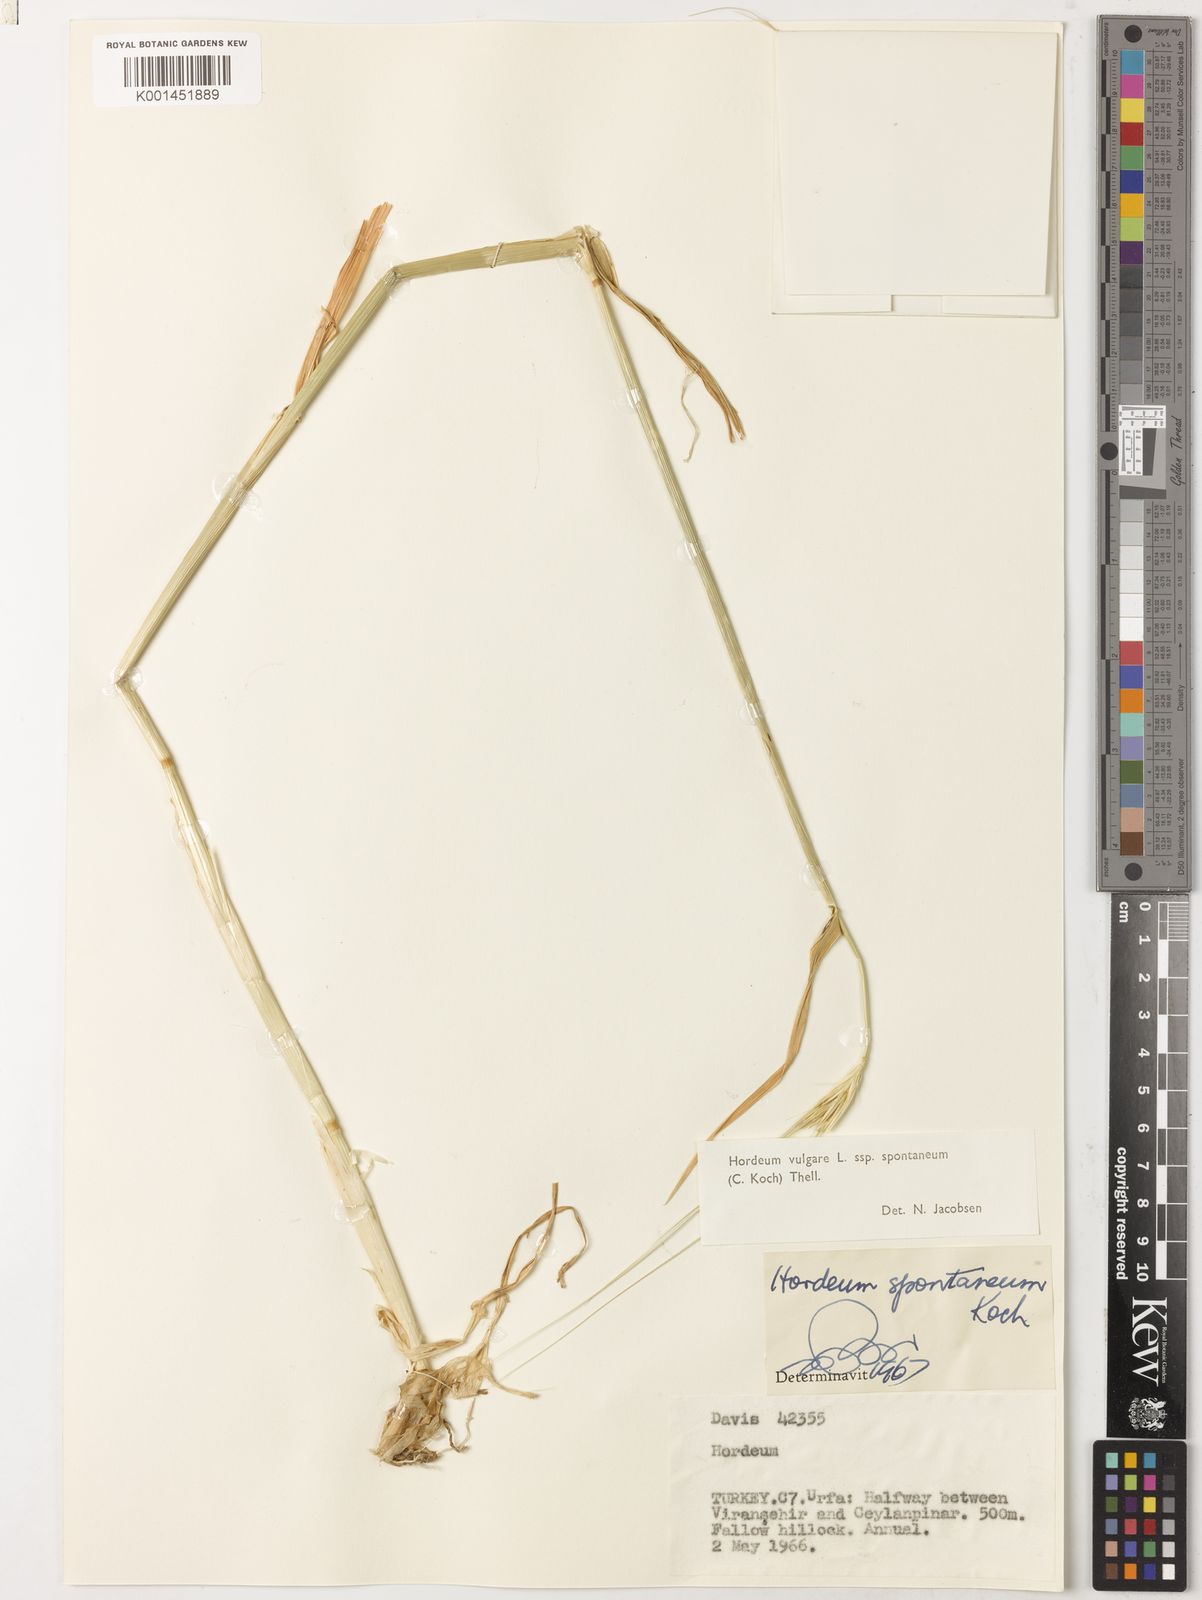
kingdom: Plantae
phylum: Tracheophyta
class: Liliopsida
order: Poales
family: Poaceae
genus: Hordeum
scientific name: Hordeum spontaneum
